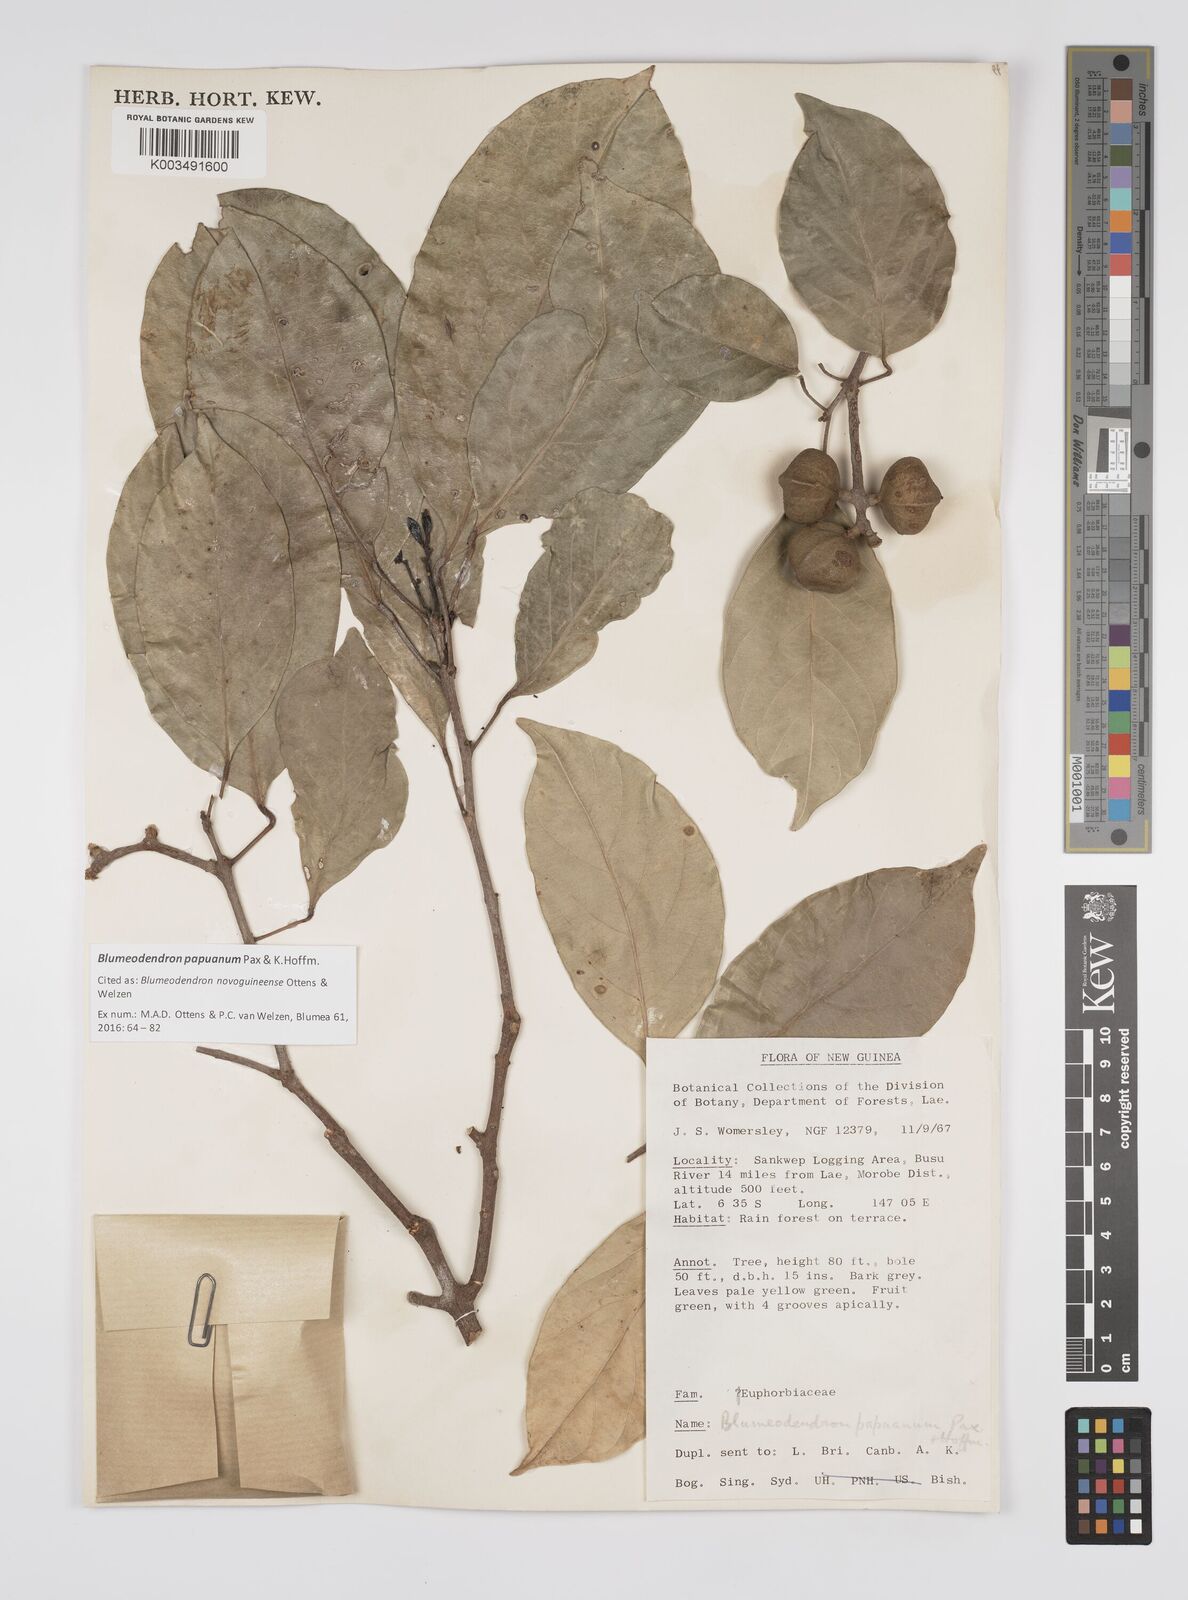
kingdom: Plantae
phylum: Tracheophyta
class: Magnoliopsida
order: Malpighiales
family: Euphorbiaceae
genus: Blumeodendron
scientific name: Blumeodendron papuanum
